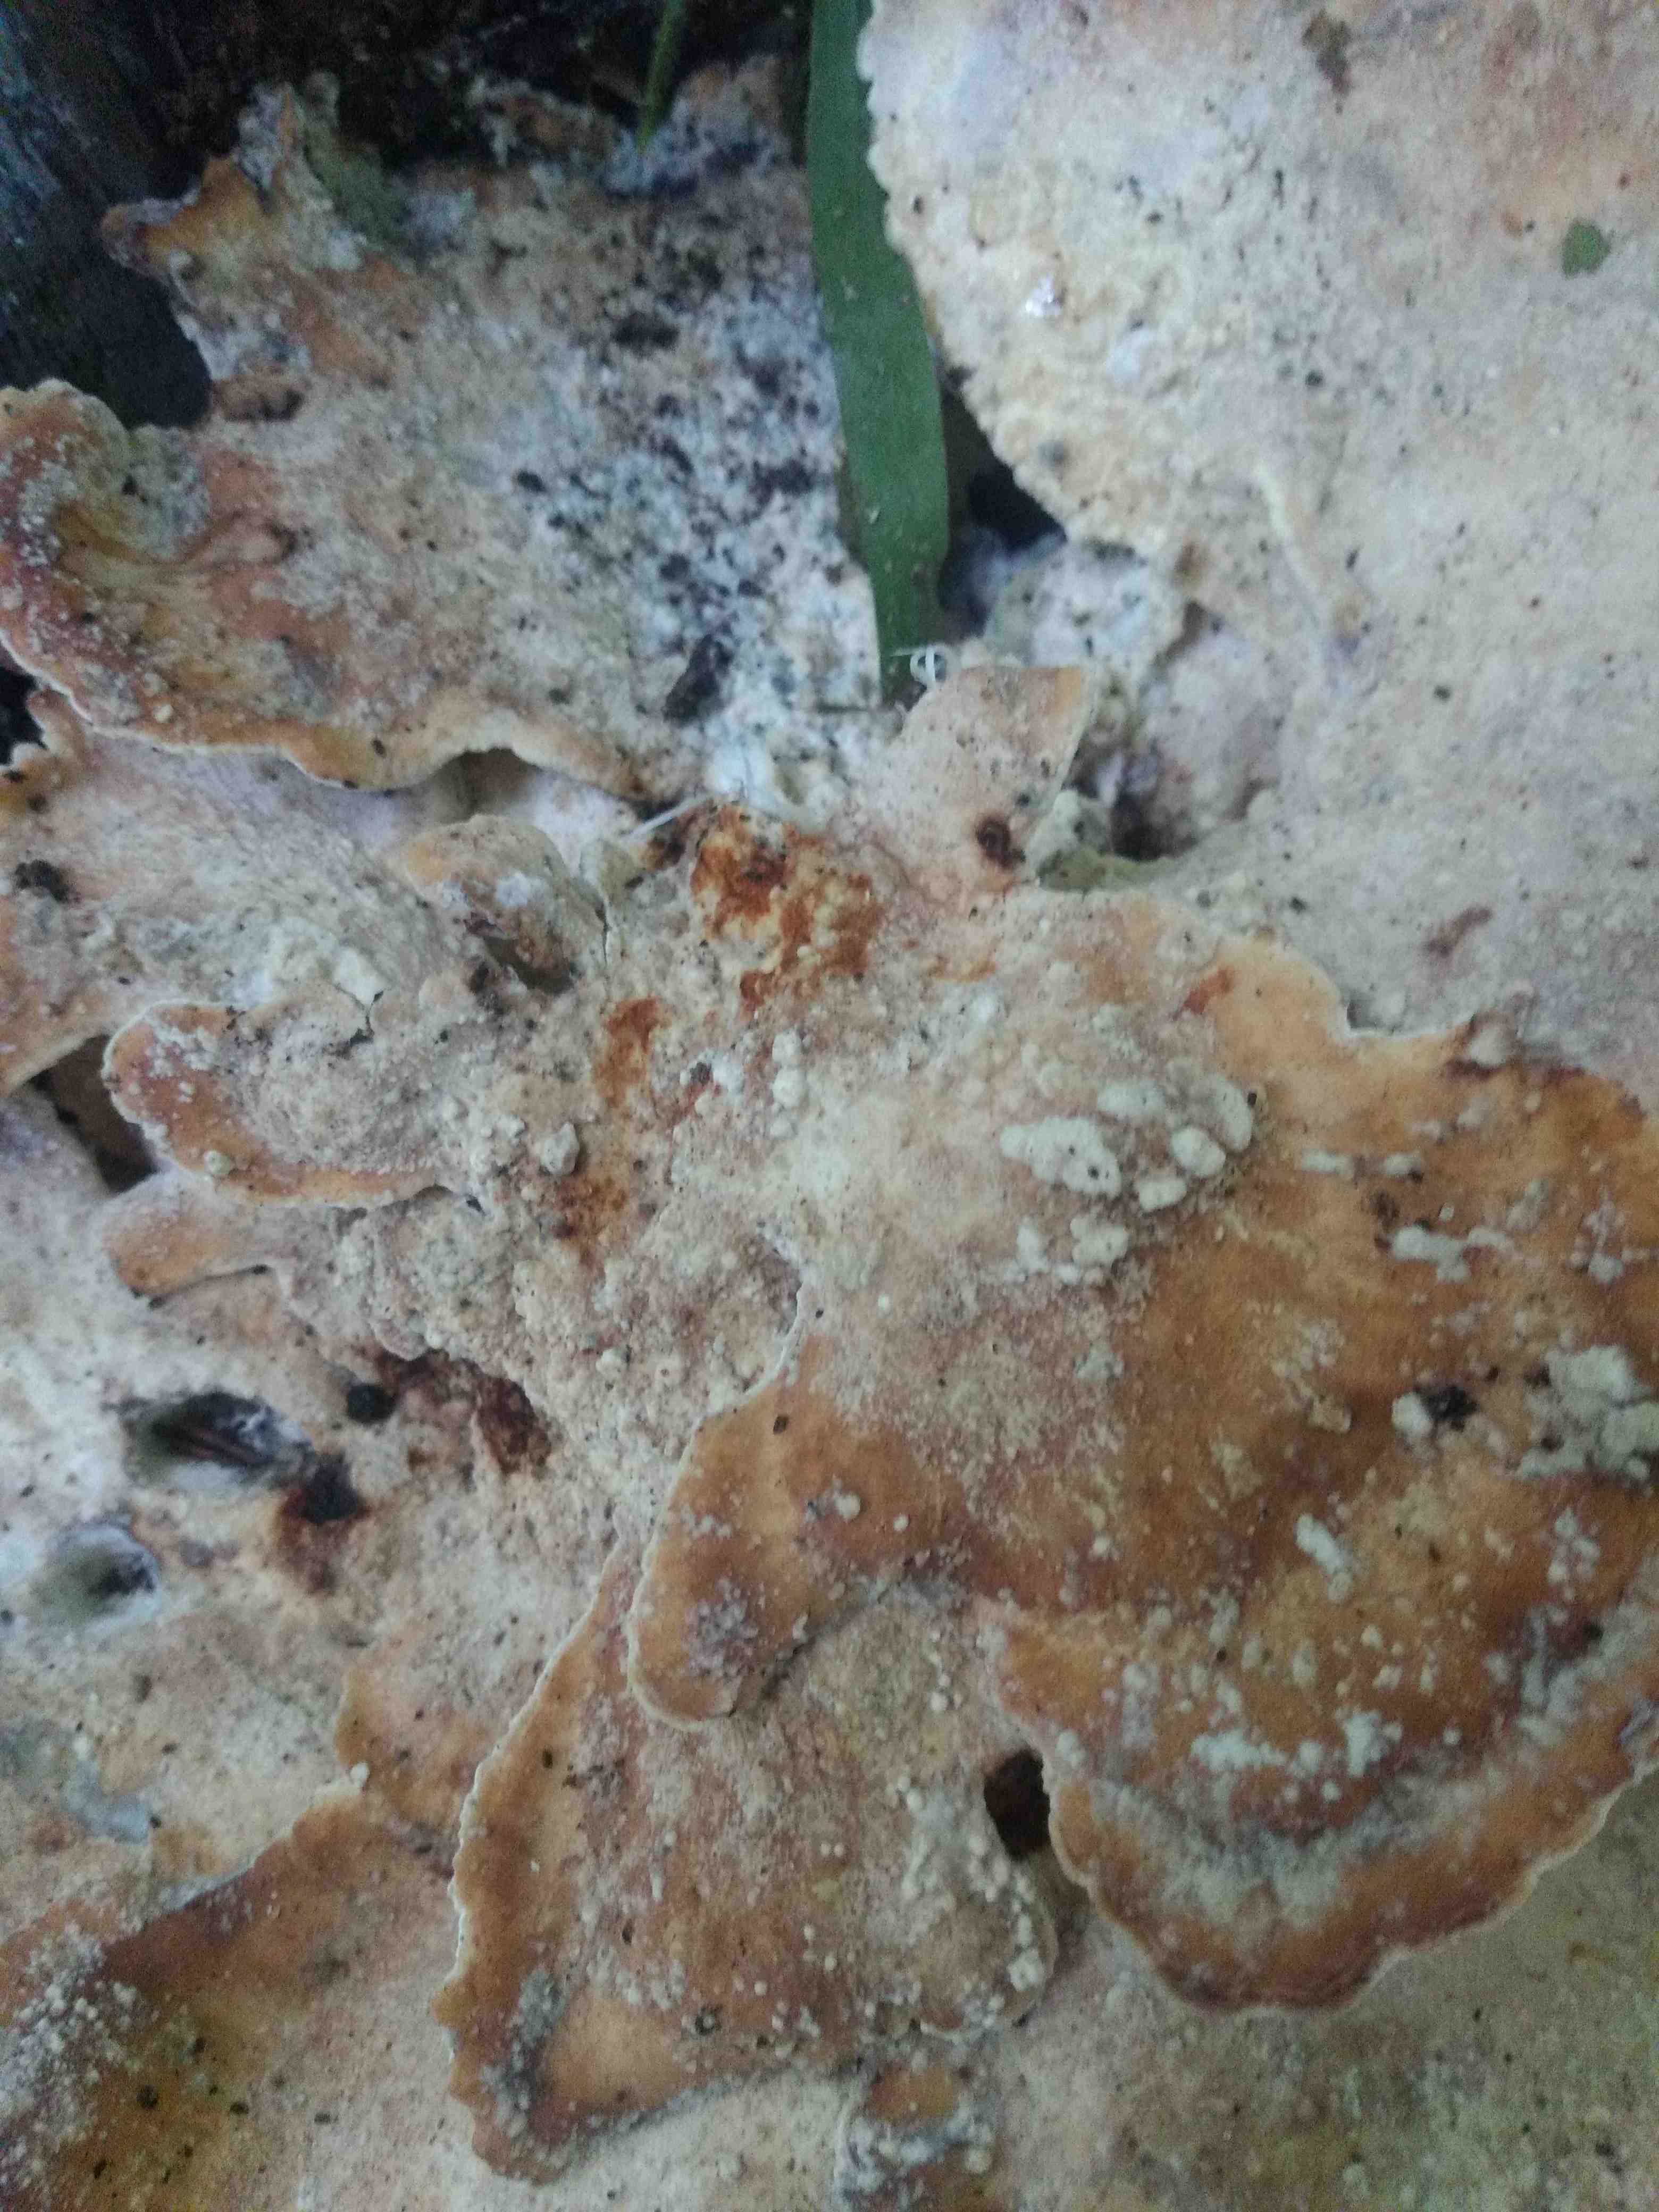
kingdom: Fungi
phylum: Basidiomycota
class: Agaricomycetes
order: Polyporales
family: Meripilaceae
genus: Meripilus
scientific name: Meripilus giganteus
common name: kæmpeporesvamp
